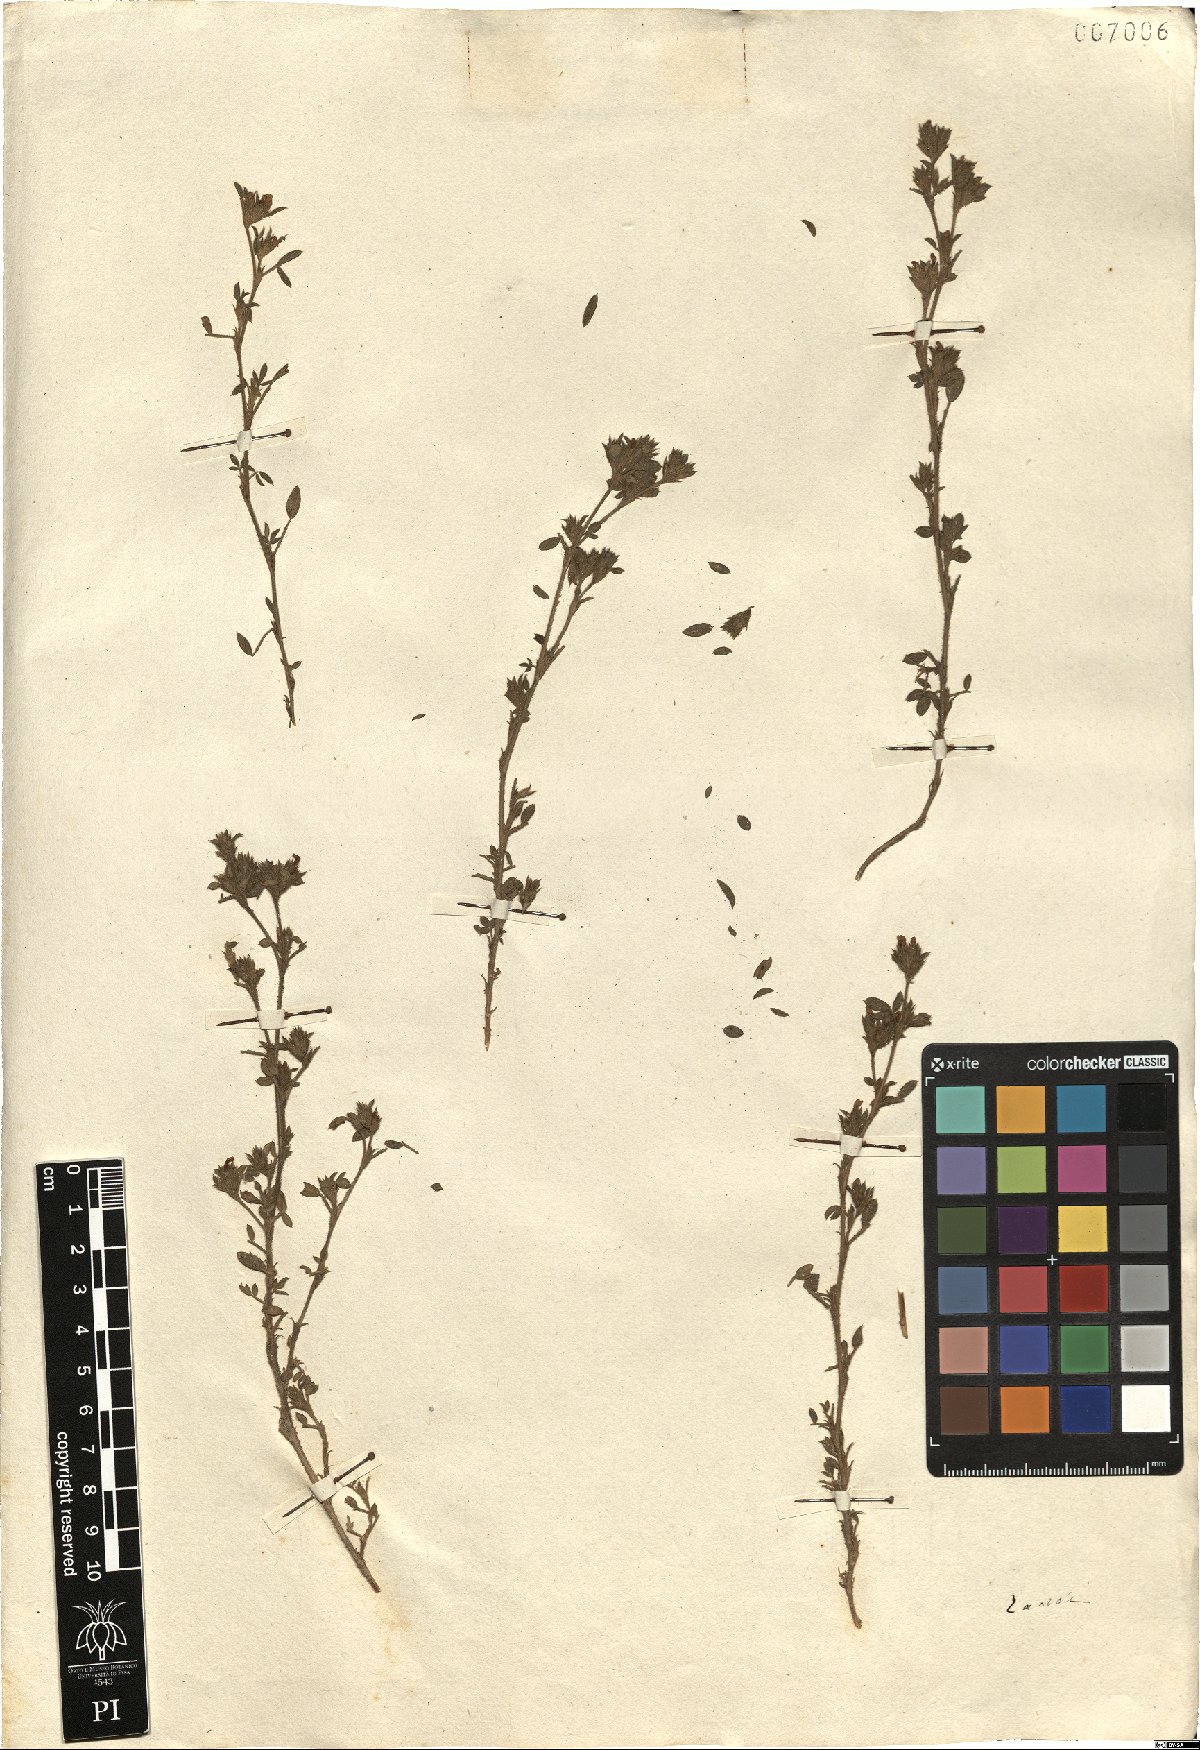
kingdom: Plantae
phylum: Tracheophyta
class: Magnoliopsida
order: Fabales
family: Fabaceae
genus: Trifolium
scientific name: Trifolium
